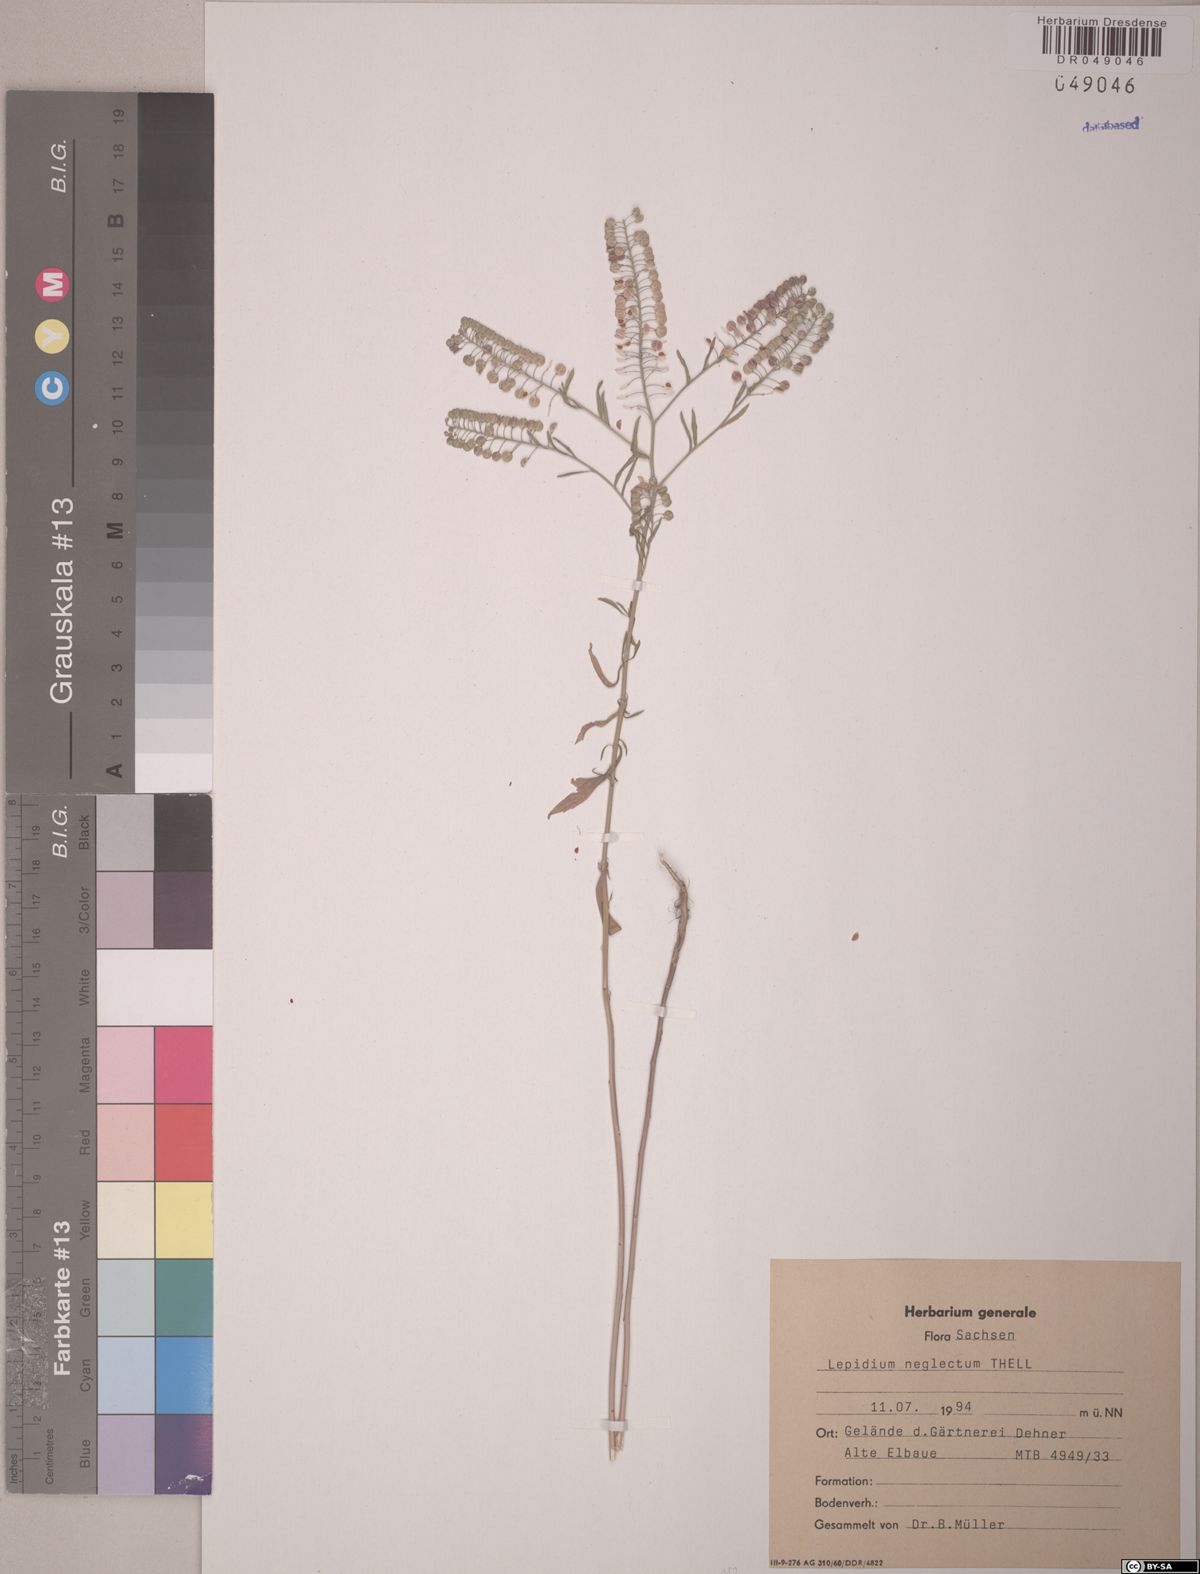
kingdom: Plantae
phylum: Tracheophyta
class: Magnoliopsida
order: Brassicales
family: Brassicaceae
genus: Lepidium
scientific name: Lepidium densiflorum
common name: Miner's pepperwort
